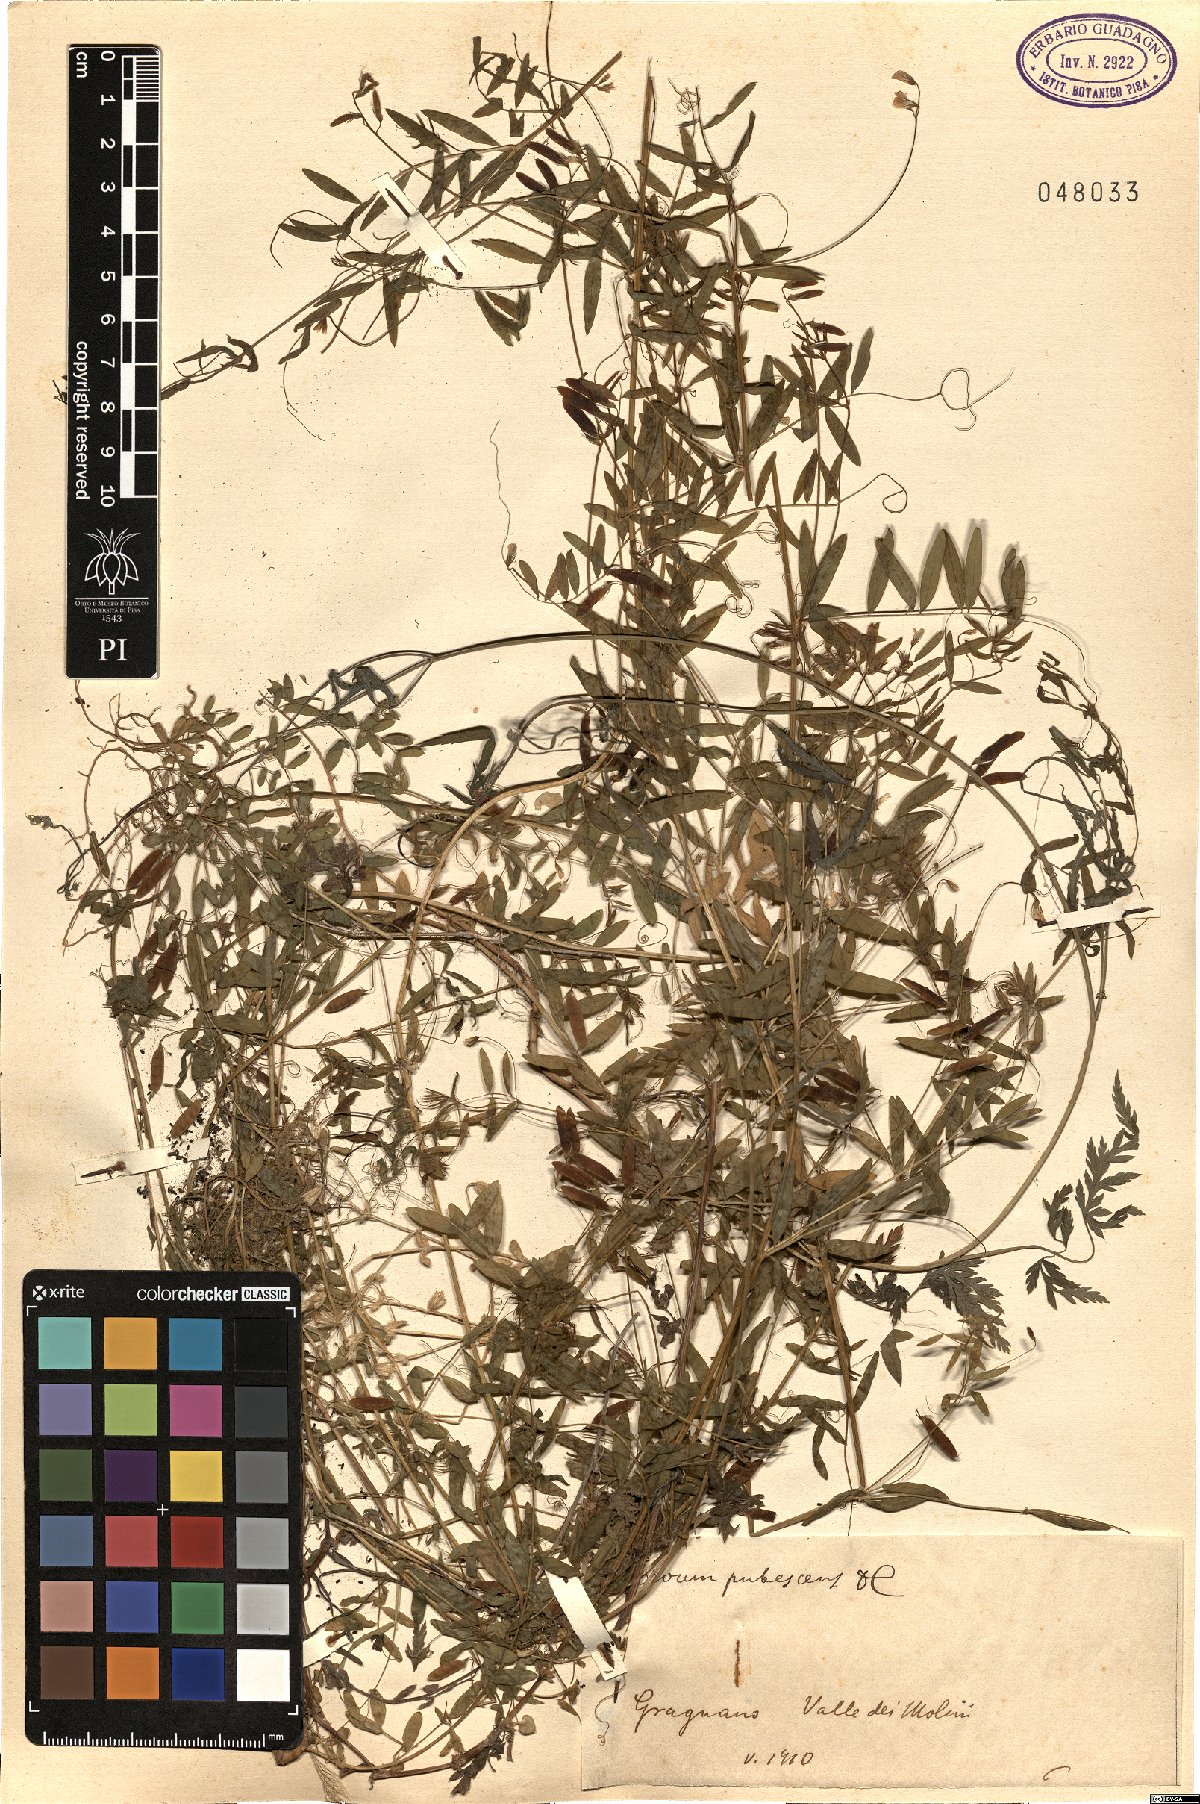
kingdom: Plantae
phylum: Tracheophyta
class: Magnoliopsida
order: Fabales
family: Fabaceae
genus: Vicia
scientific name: Vicia pubescens
